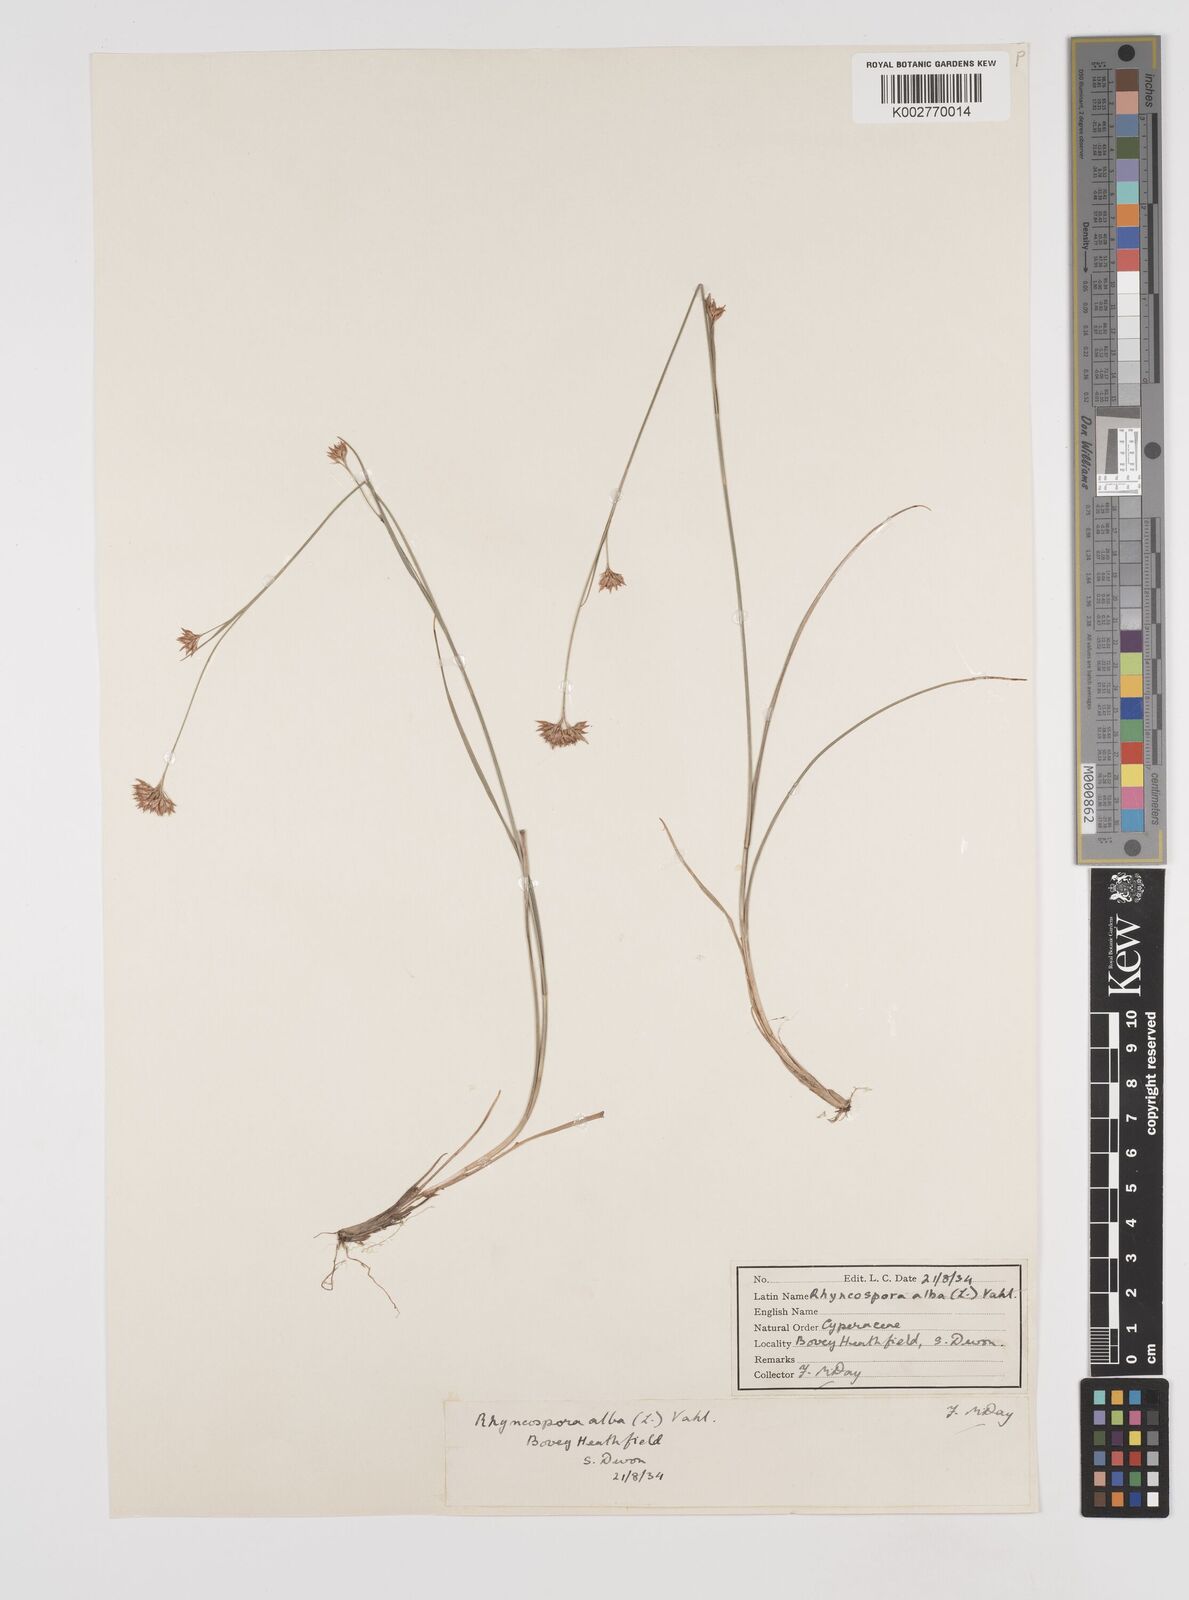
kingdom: Plantae
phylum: Tracheophyta
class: Liliopsida
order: Poales
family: Cyperaceae
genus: Rhynchospora
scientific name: Rhynchospora alba
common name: White beak-sedge
